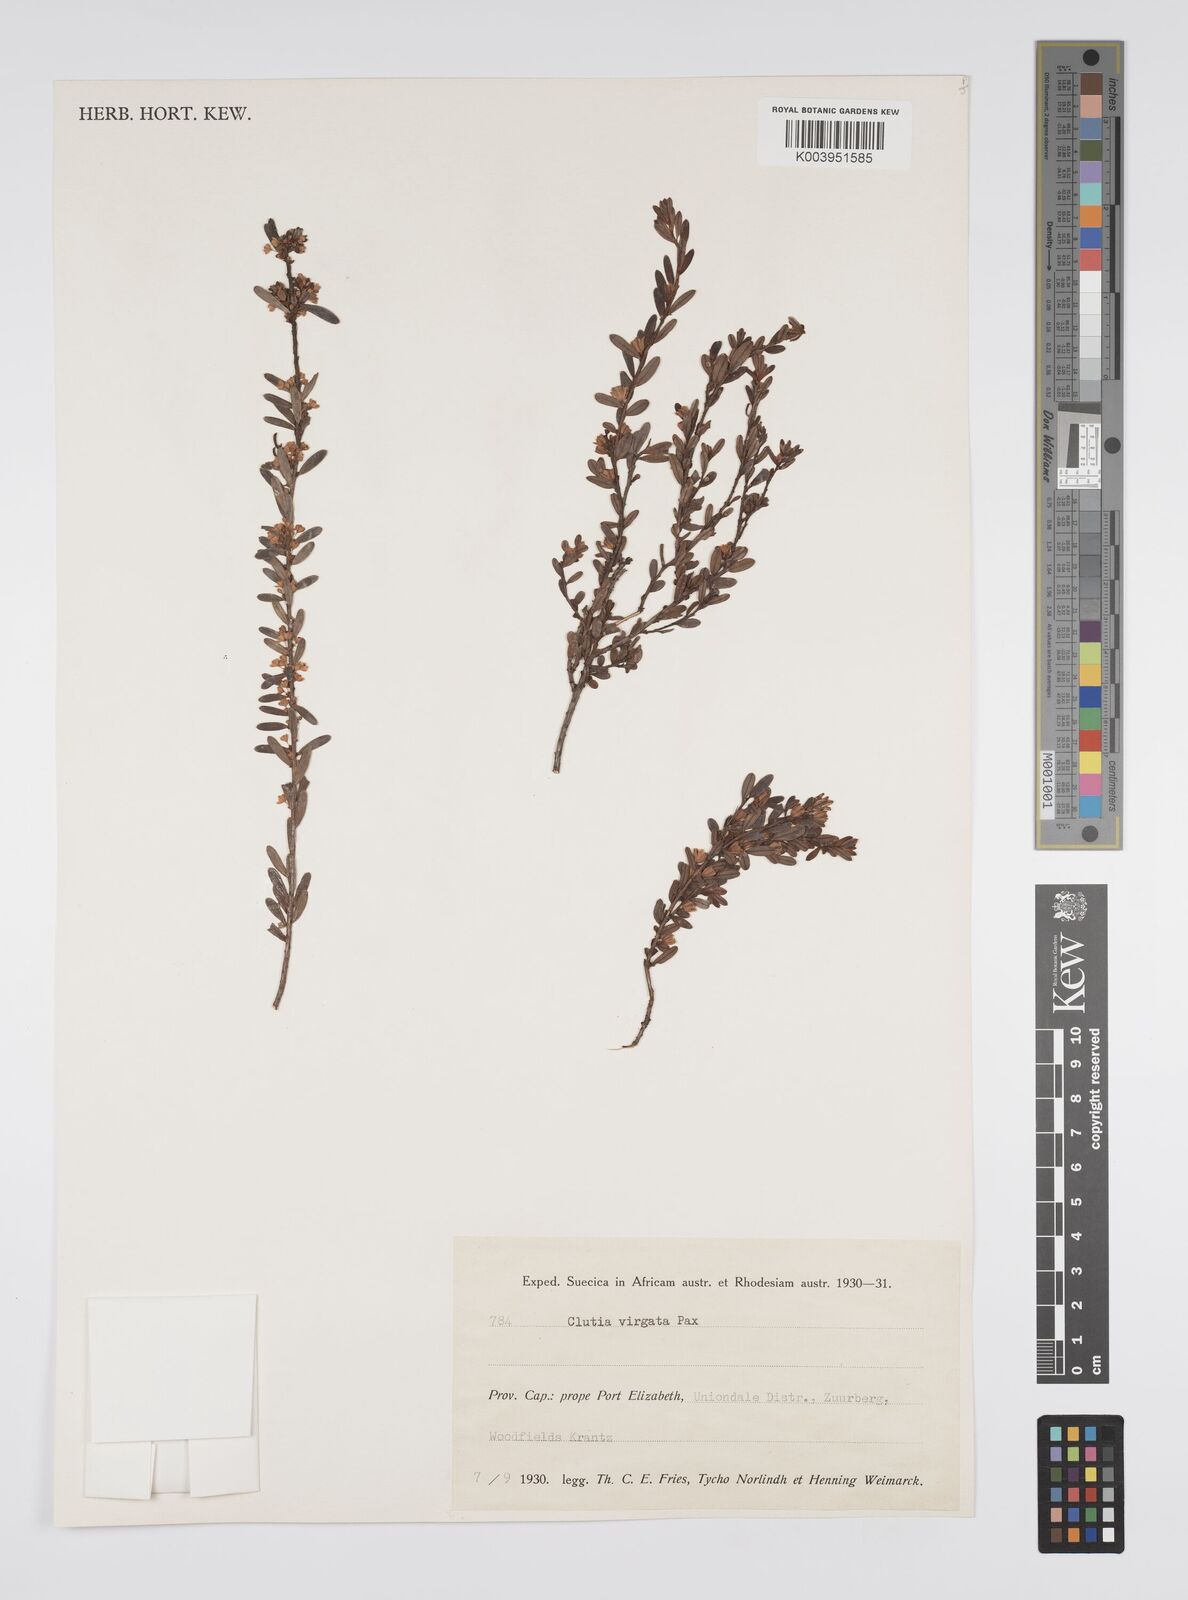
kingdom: Plantae
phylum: Tracheophyta
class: Magnoliopsida
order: Malpighiales
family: Peraceae
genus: Clutia
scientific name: Clutia virgata
